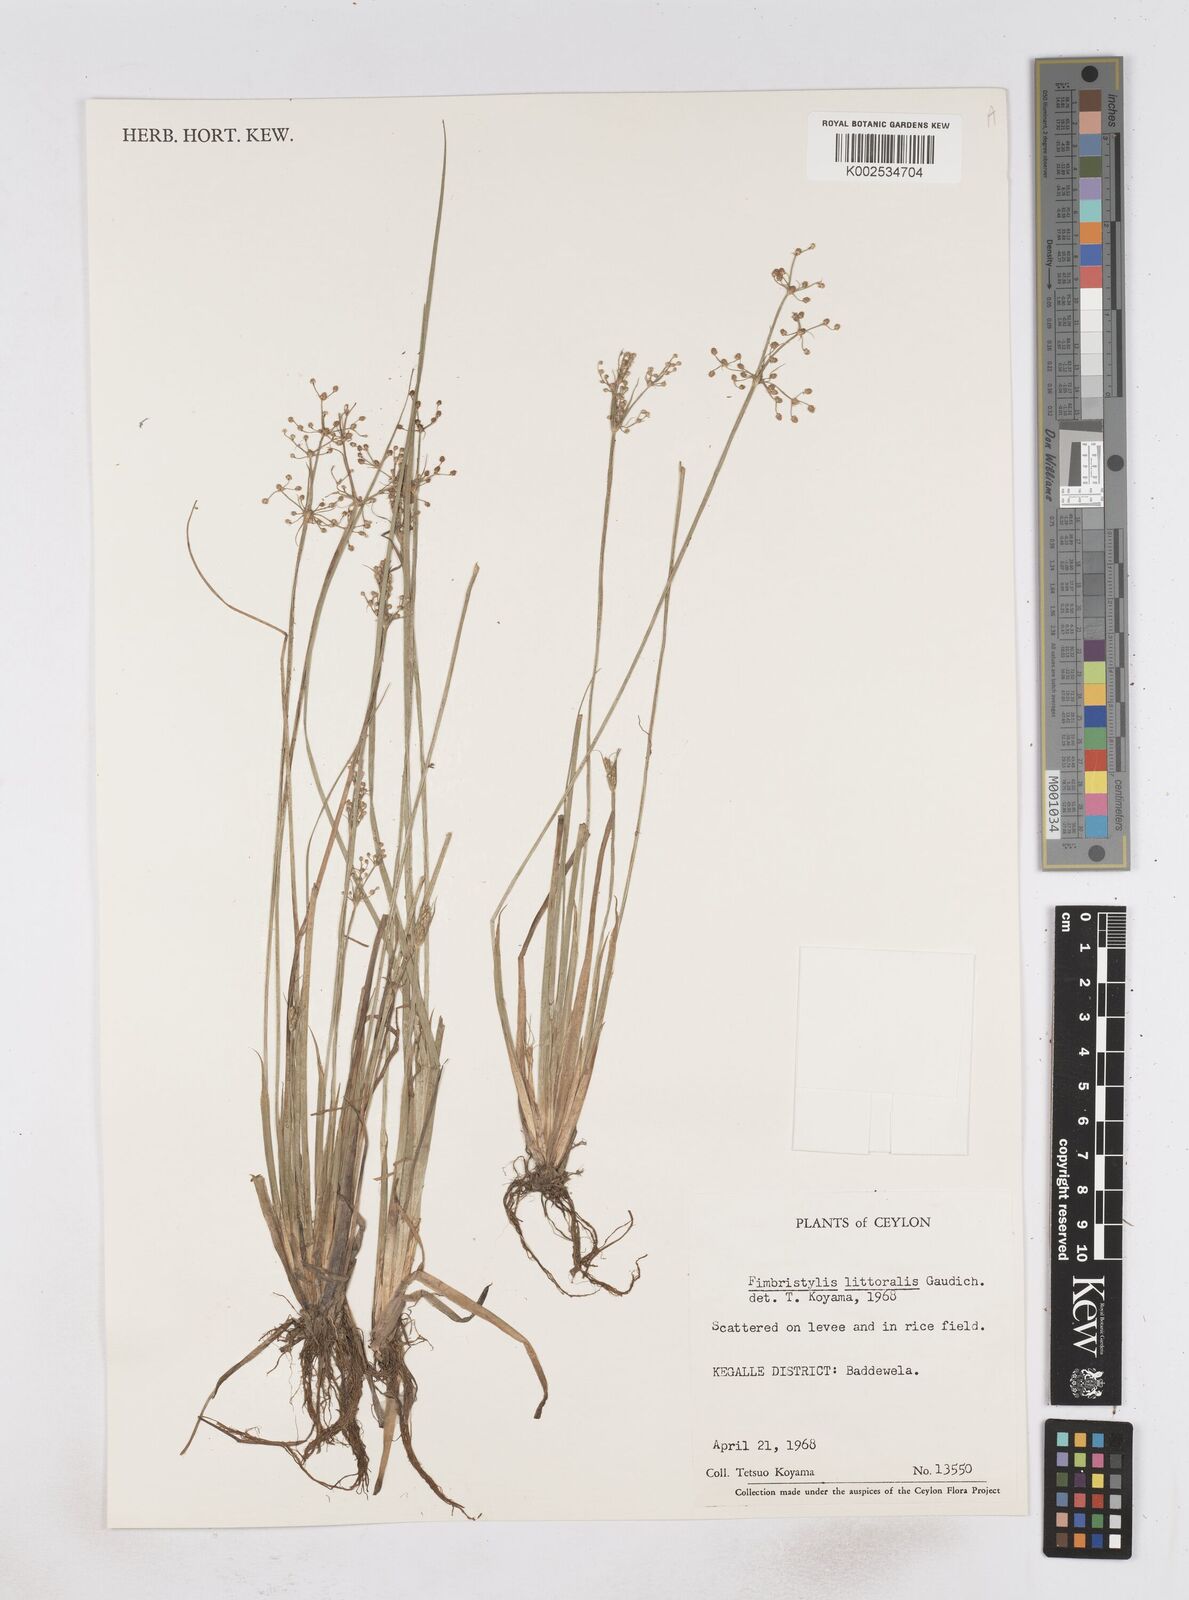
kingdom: Plantae
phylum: Tracheophyta
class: Liliopsida
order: Poales
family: Cyperaceae
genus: Fimbristylis
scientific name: Fimbristylis littoralis
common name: Fimbry
